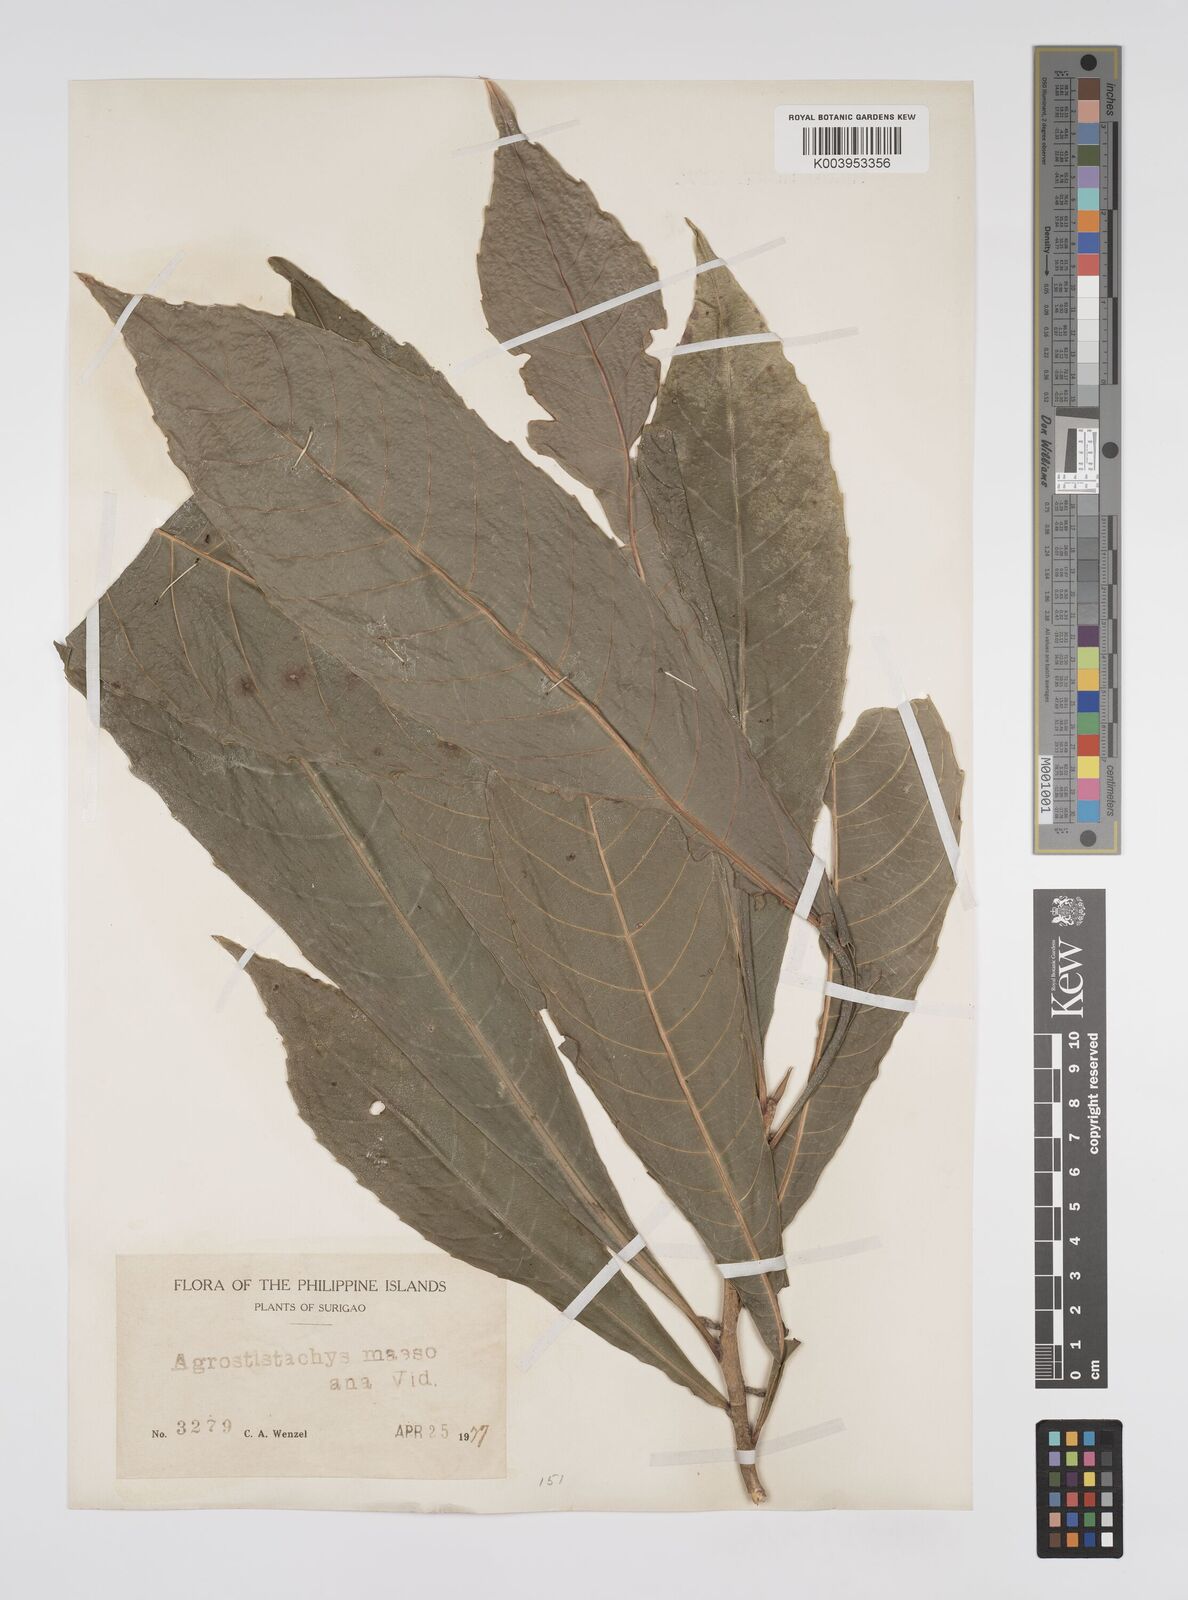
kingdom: Plantae
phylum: Tracheophyta
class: Magnoliopsida
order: Malpighiales
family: Euphorbiaceae
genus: Agrostistachys
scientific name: Agrostistachys indica
